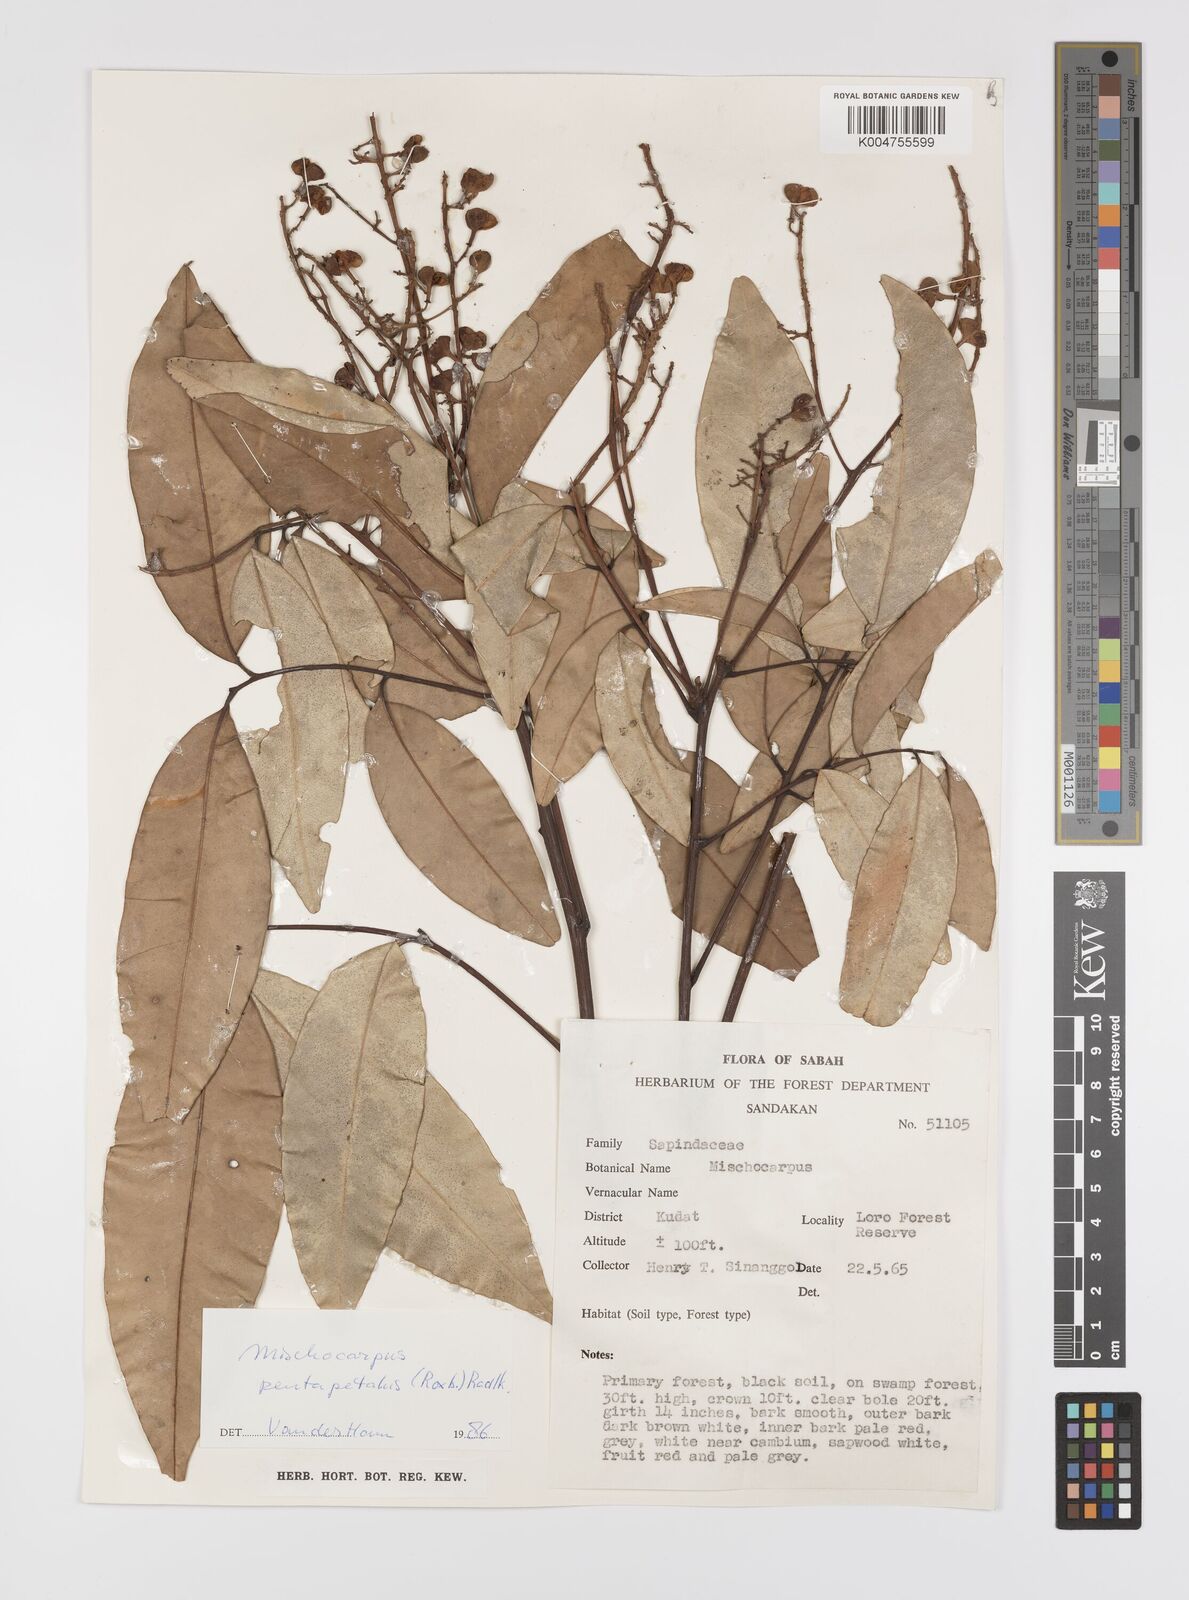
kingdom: Plantae
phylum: Tracheophyta
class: Magnoliopsida
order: Sapindales
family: Sapindaceae
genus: Mischocarpus
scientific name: Mischocarpus pentapetalus
